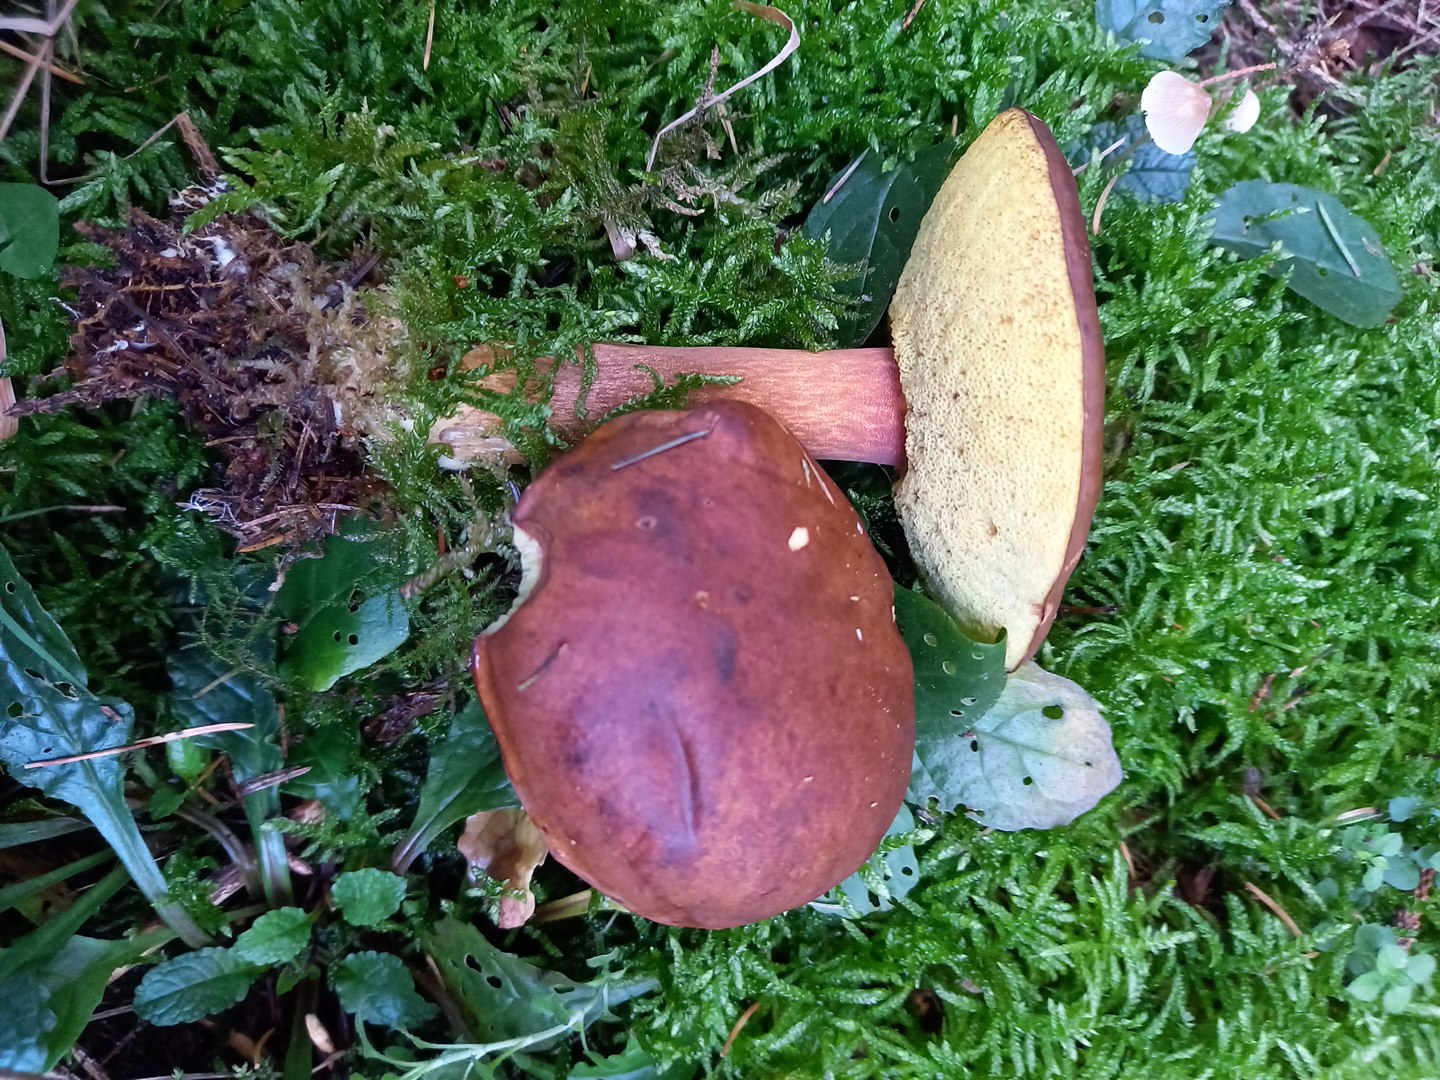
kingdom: Fungi
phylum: Basidiomycota
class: Agaricomycetes
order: Boletales
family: Boletaceae
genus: Imleria
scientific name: Imleria badia
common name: brunstokket rørhat
